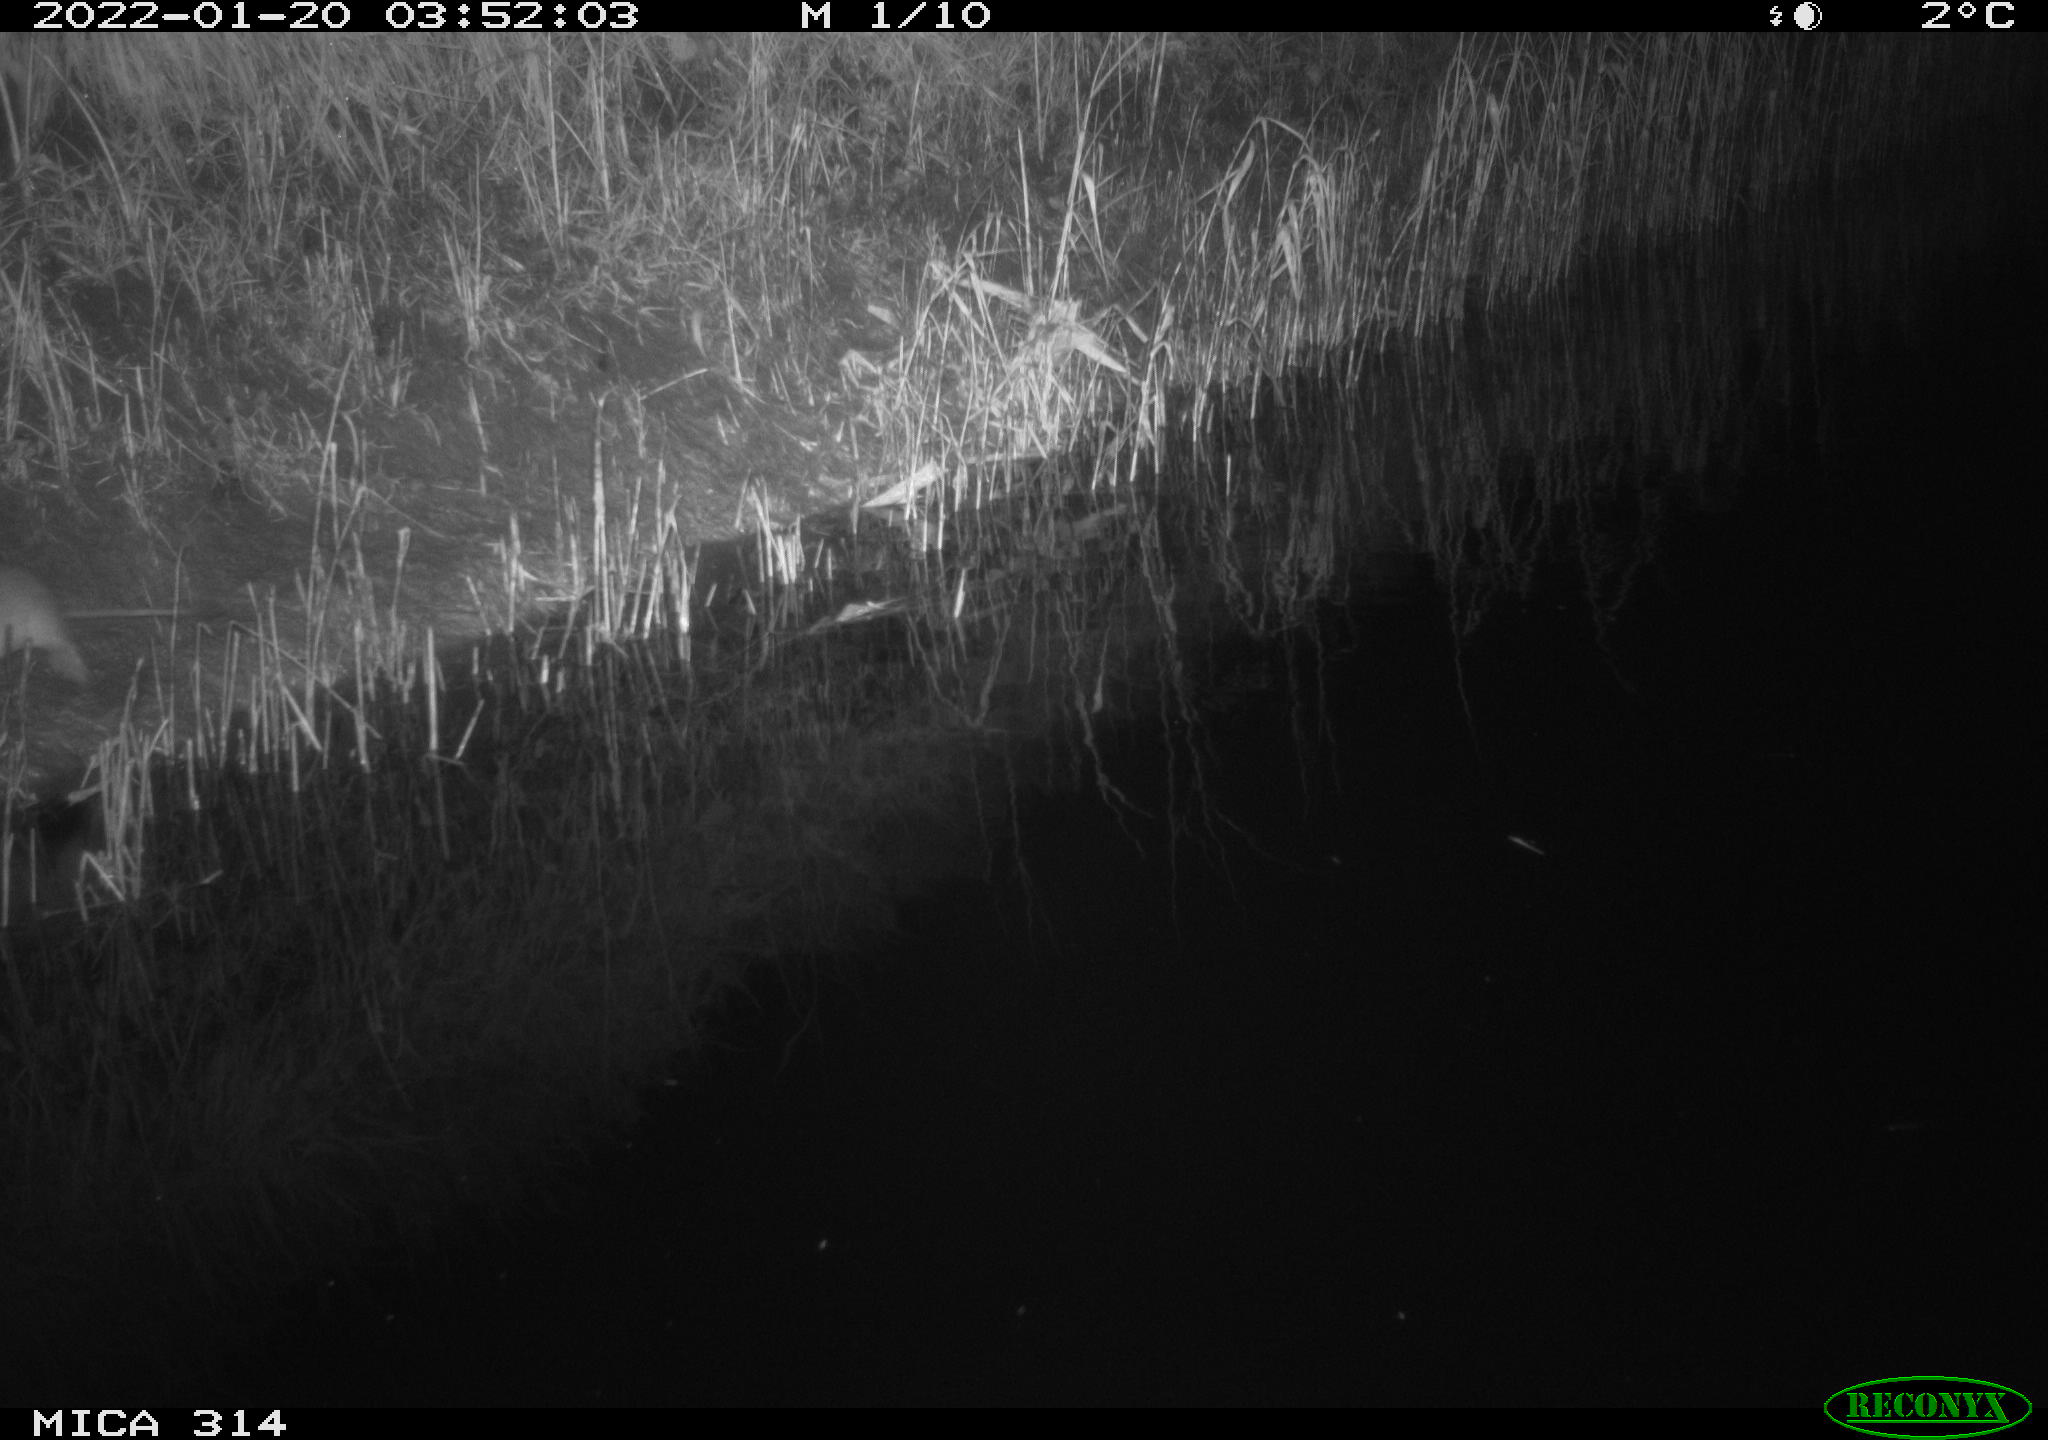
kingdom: Animalia
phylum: Chordata
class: Mammalia
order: Rodentia
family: Muridae
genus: Rattus
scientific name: Rattus norvegicus
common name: Brown rat
